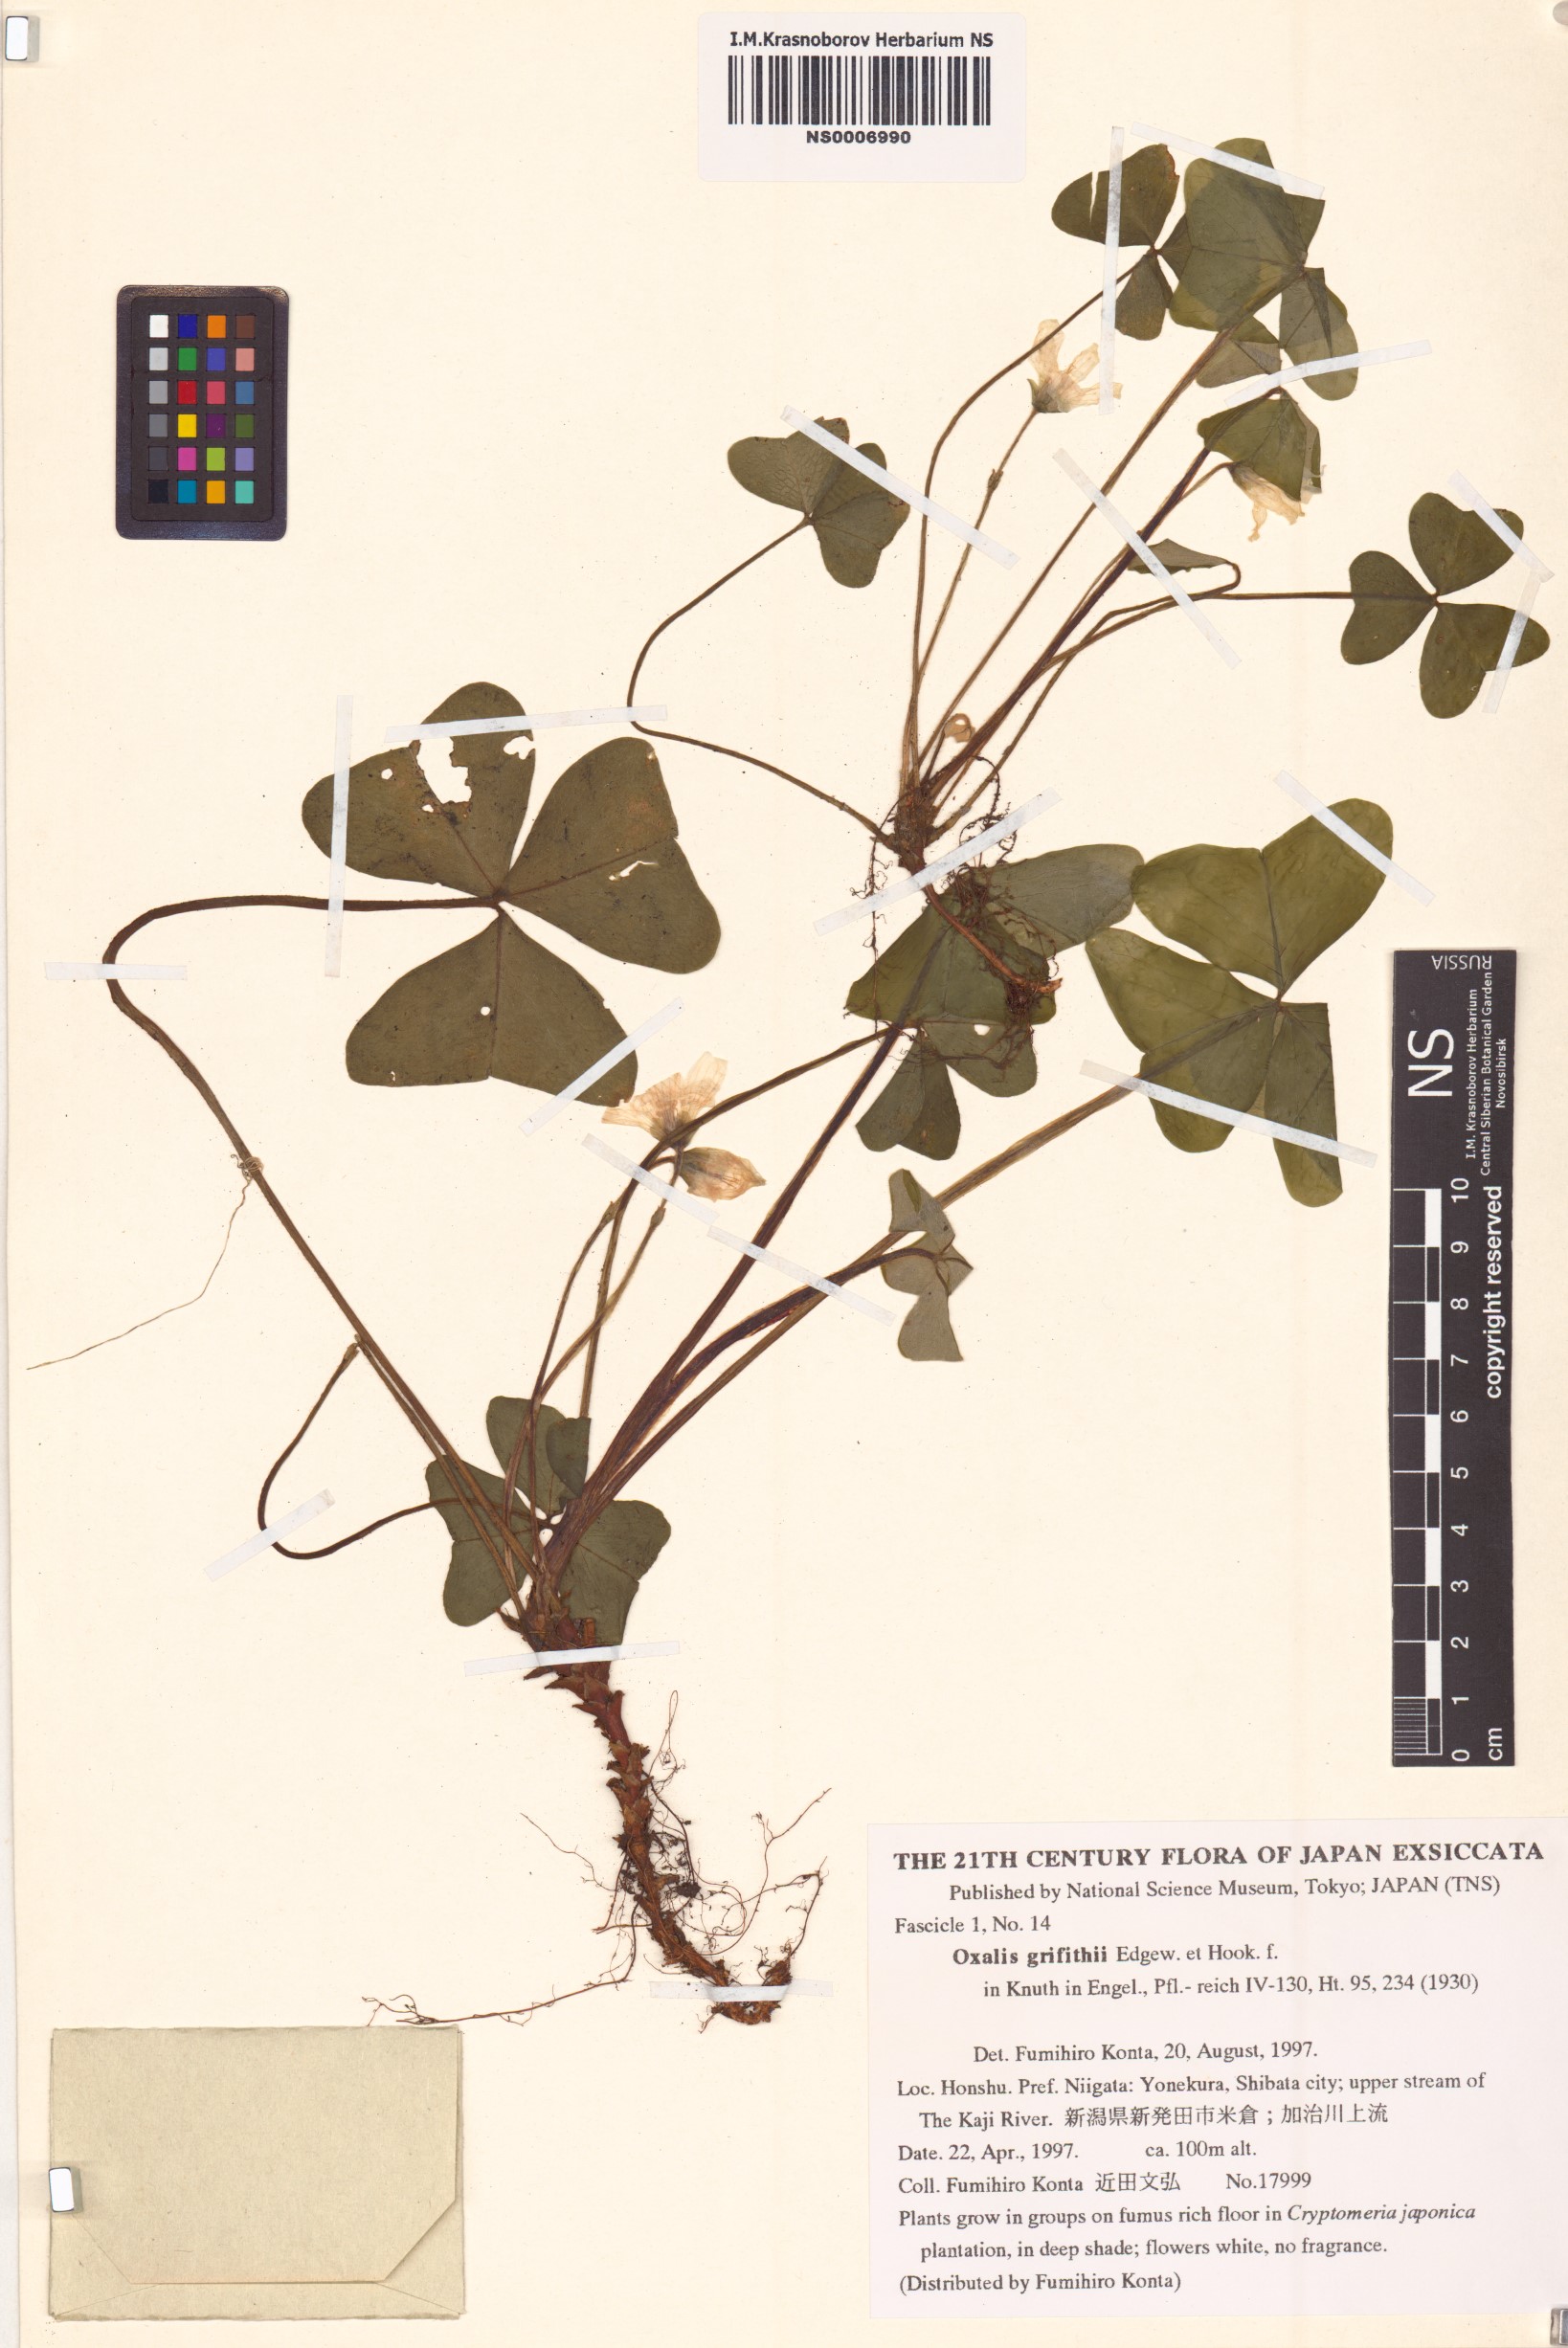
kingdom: Plantae
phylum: Tracheophyta
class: Magnoliopsida
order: Oxalidales
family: Oxalidaceae
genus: Oxalis
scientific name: Oxalis griffithii
